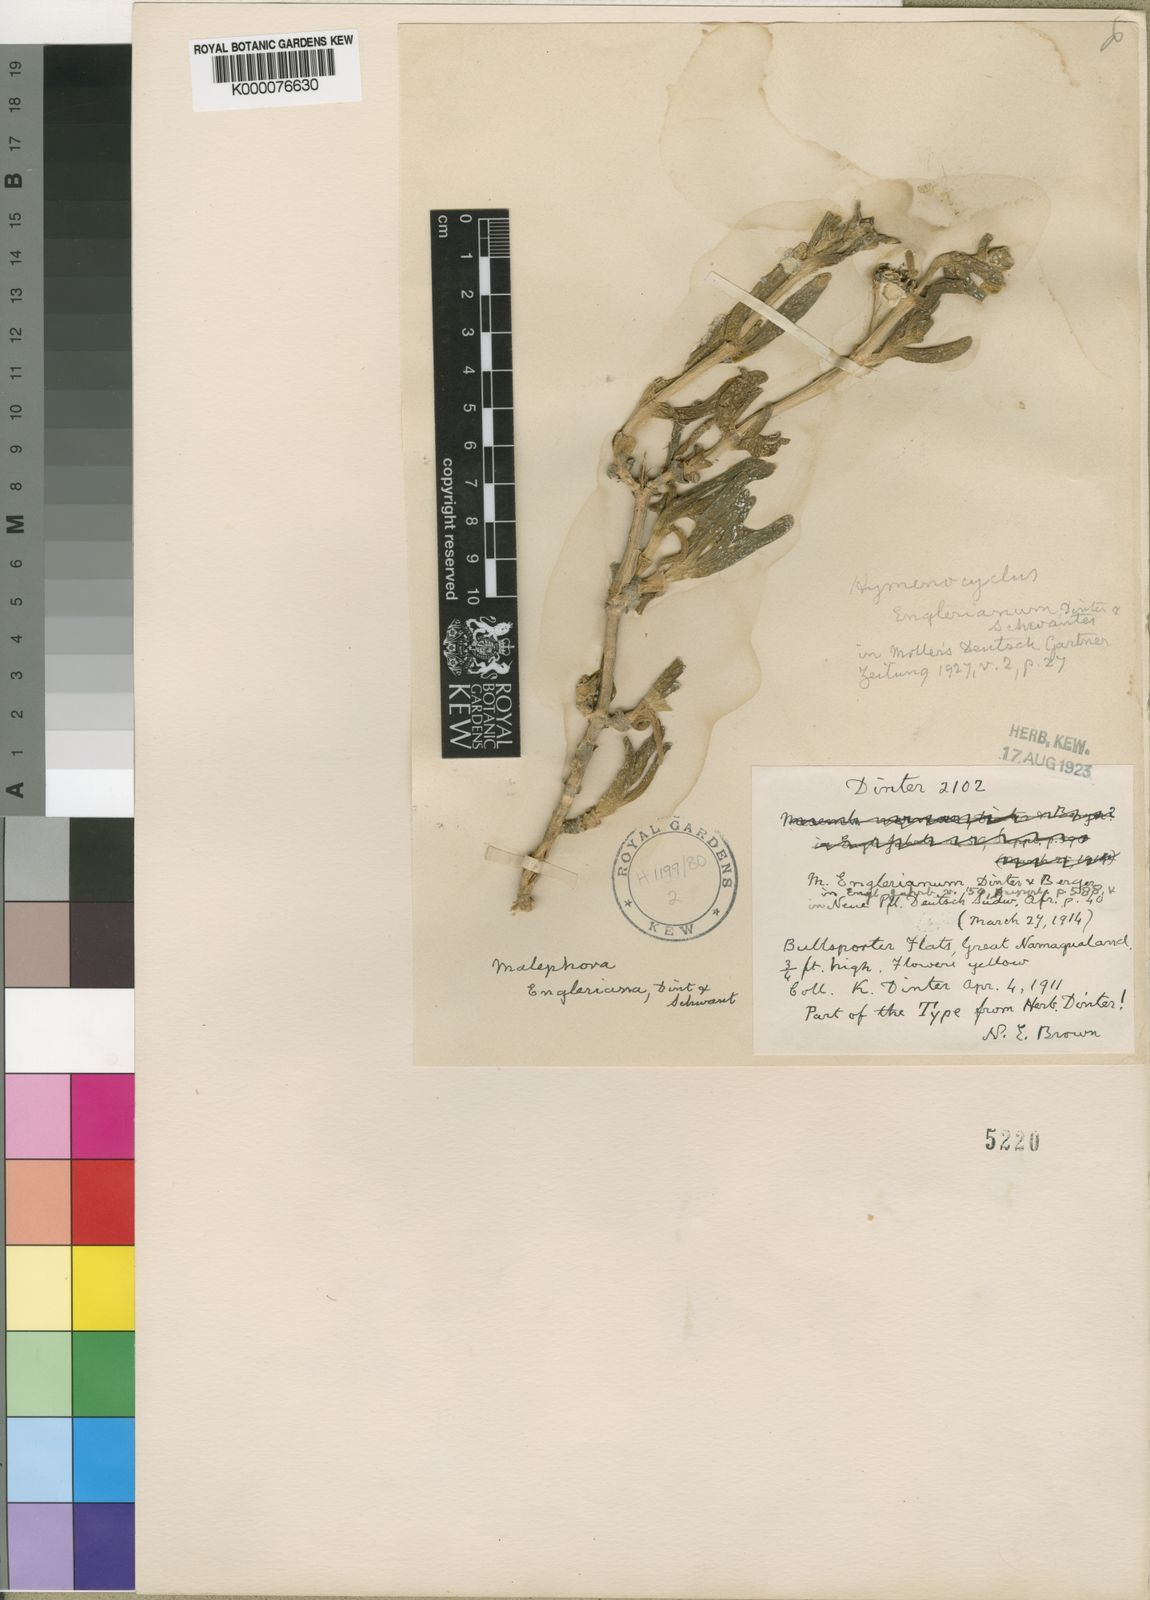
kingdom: Plantae
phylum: Tracheophyta
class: Magnoliopsida
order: Caryophyllales
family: Aizoaceae
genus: Malephora
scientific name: Malephora engleriana
